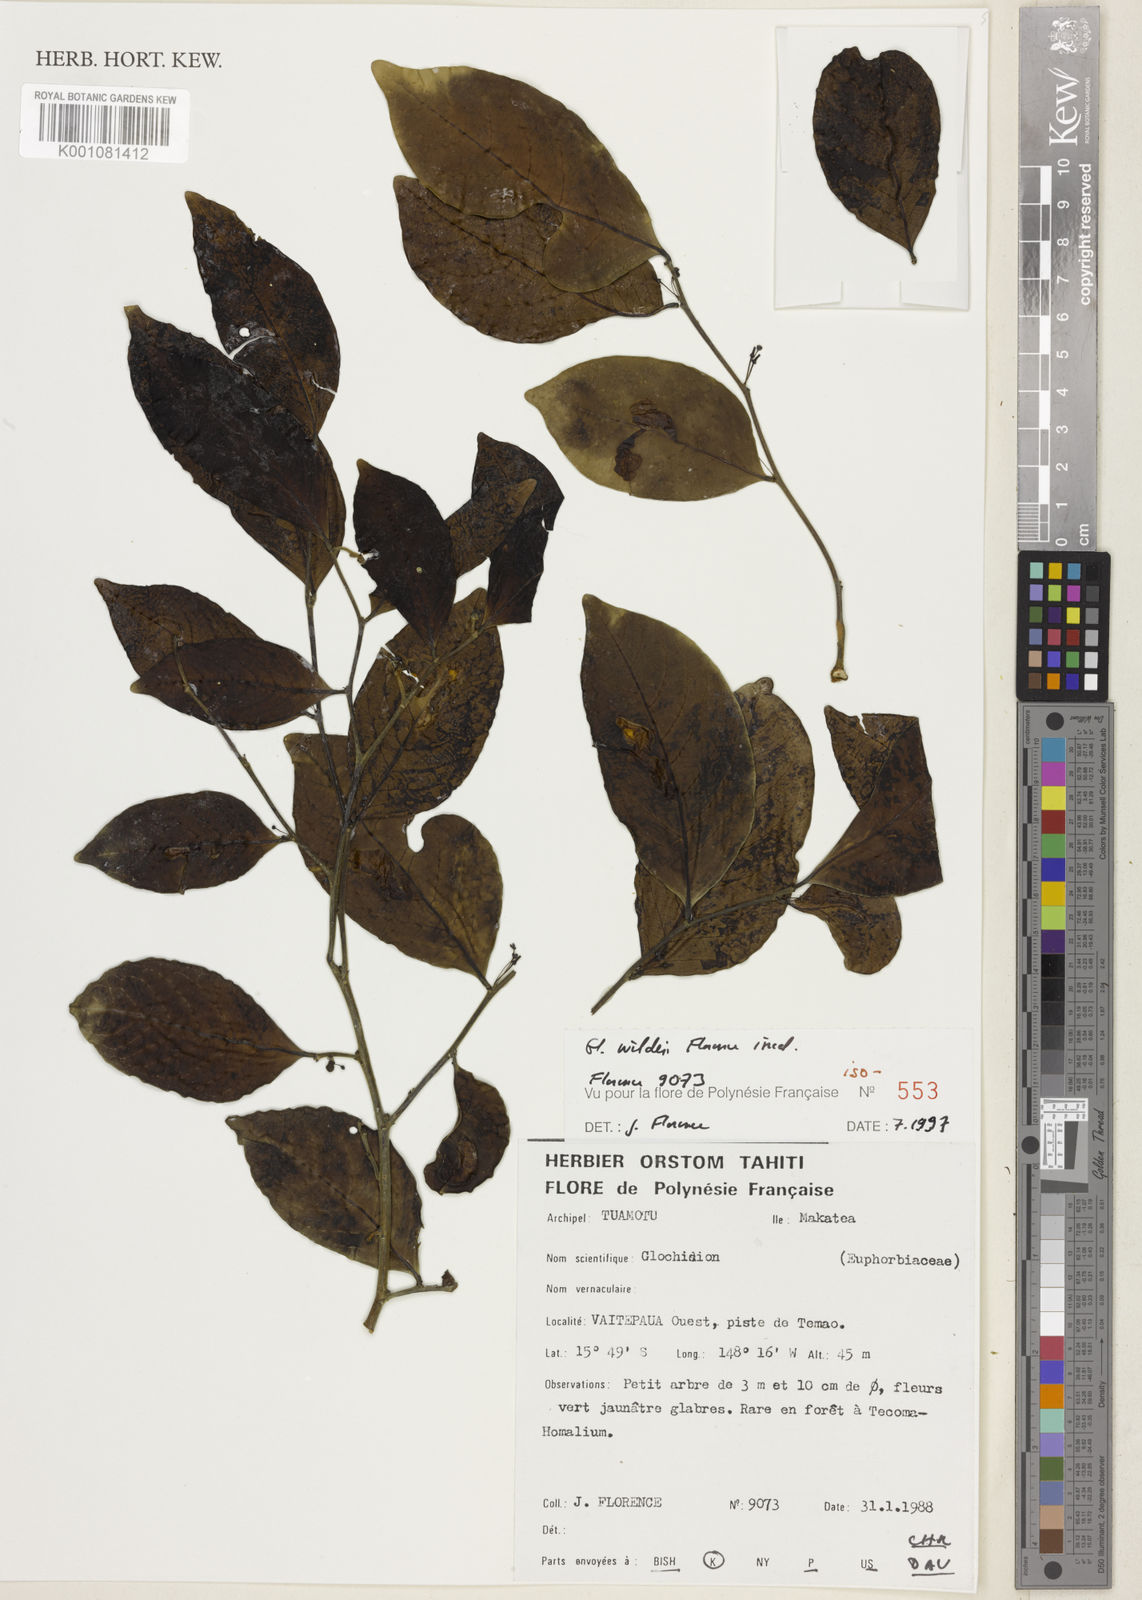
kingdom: Plantae
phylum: Tracheophyta
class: Magnoliopsida
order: Malpighiales
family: Phyllanthaceae
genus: Glochidion
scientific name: Glochidion wilderi
